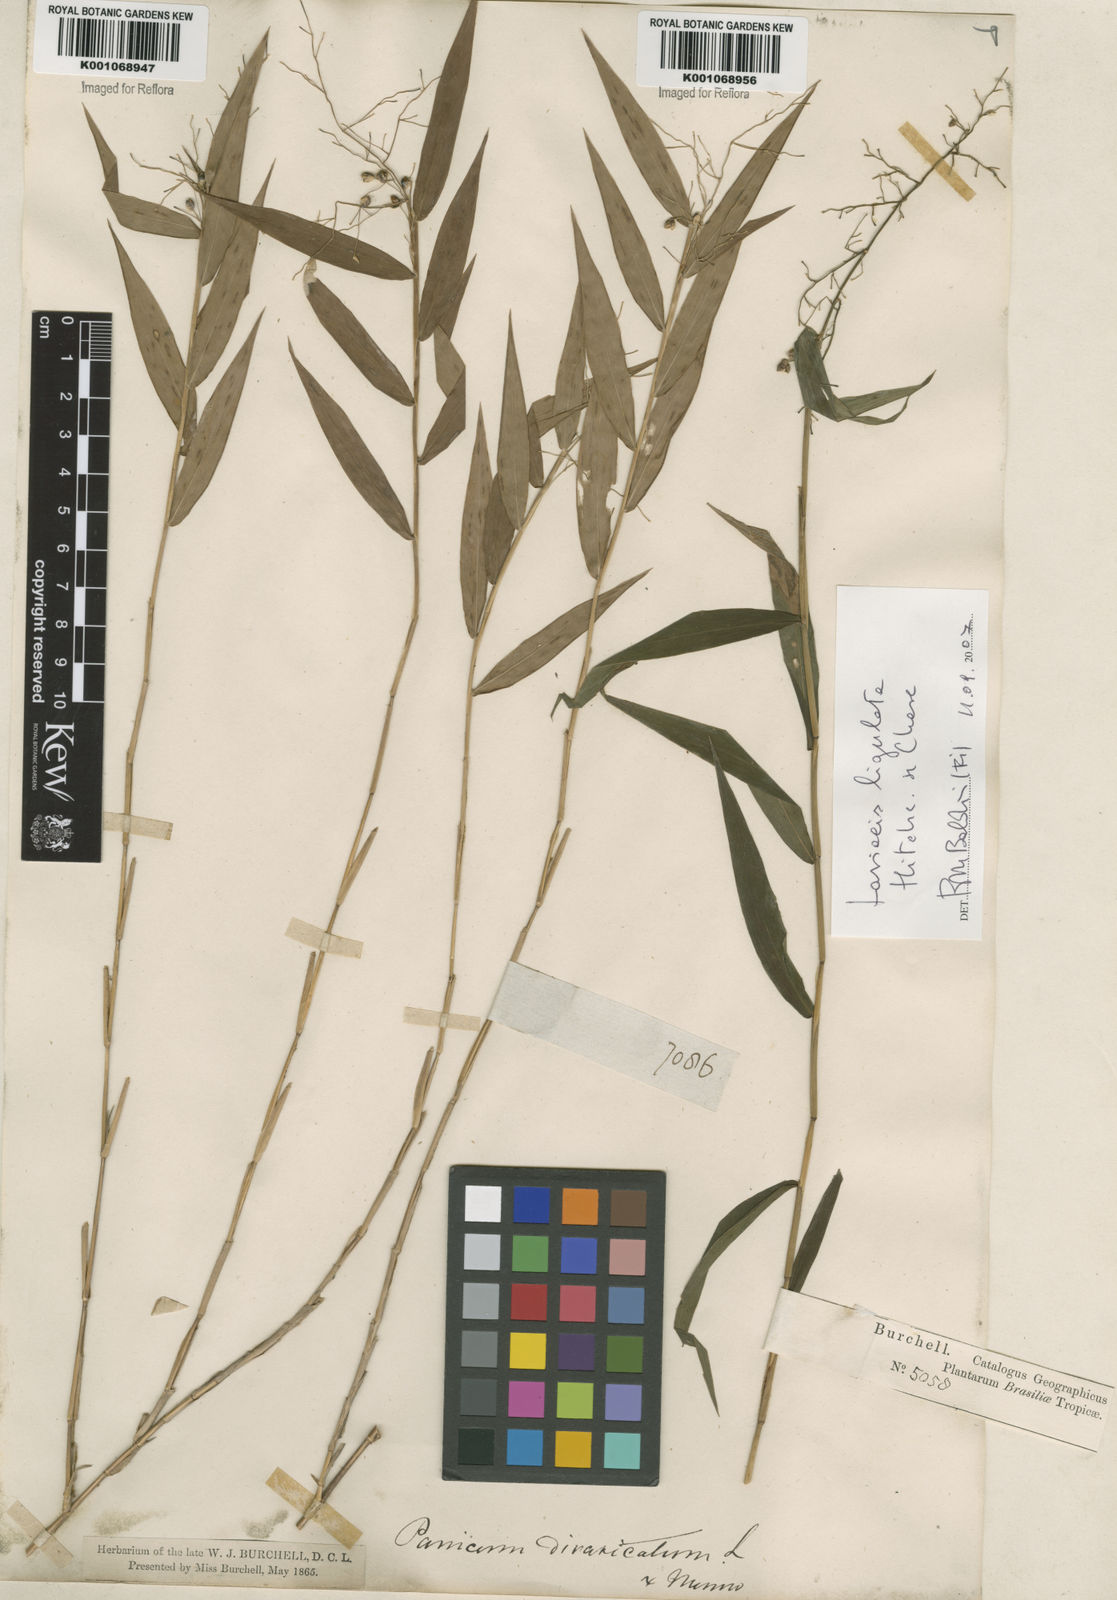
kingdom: Plantae
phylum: Tracheophyta
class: Liliopsida
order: Poales
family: Poaceae
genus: Lasiacis
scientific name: Lasiacis ligulata
